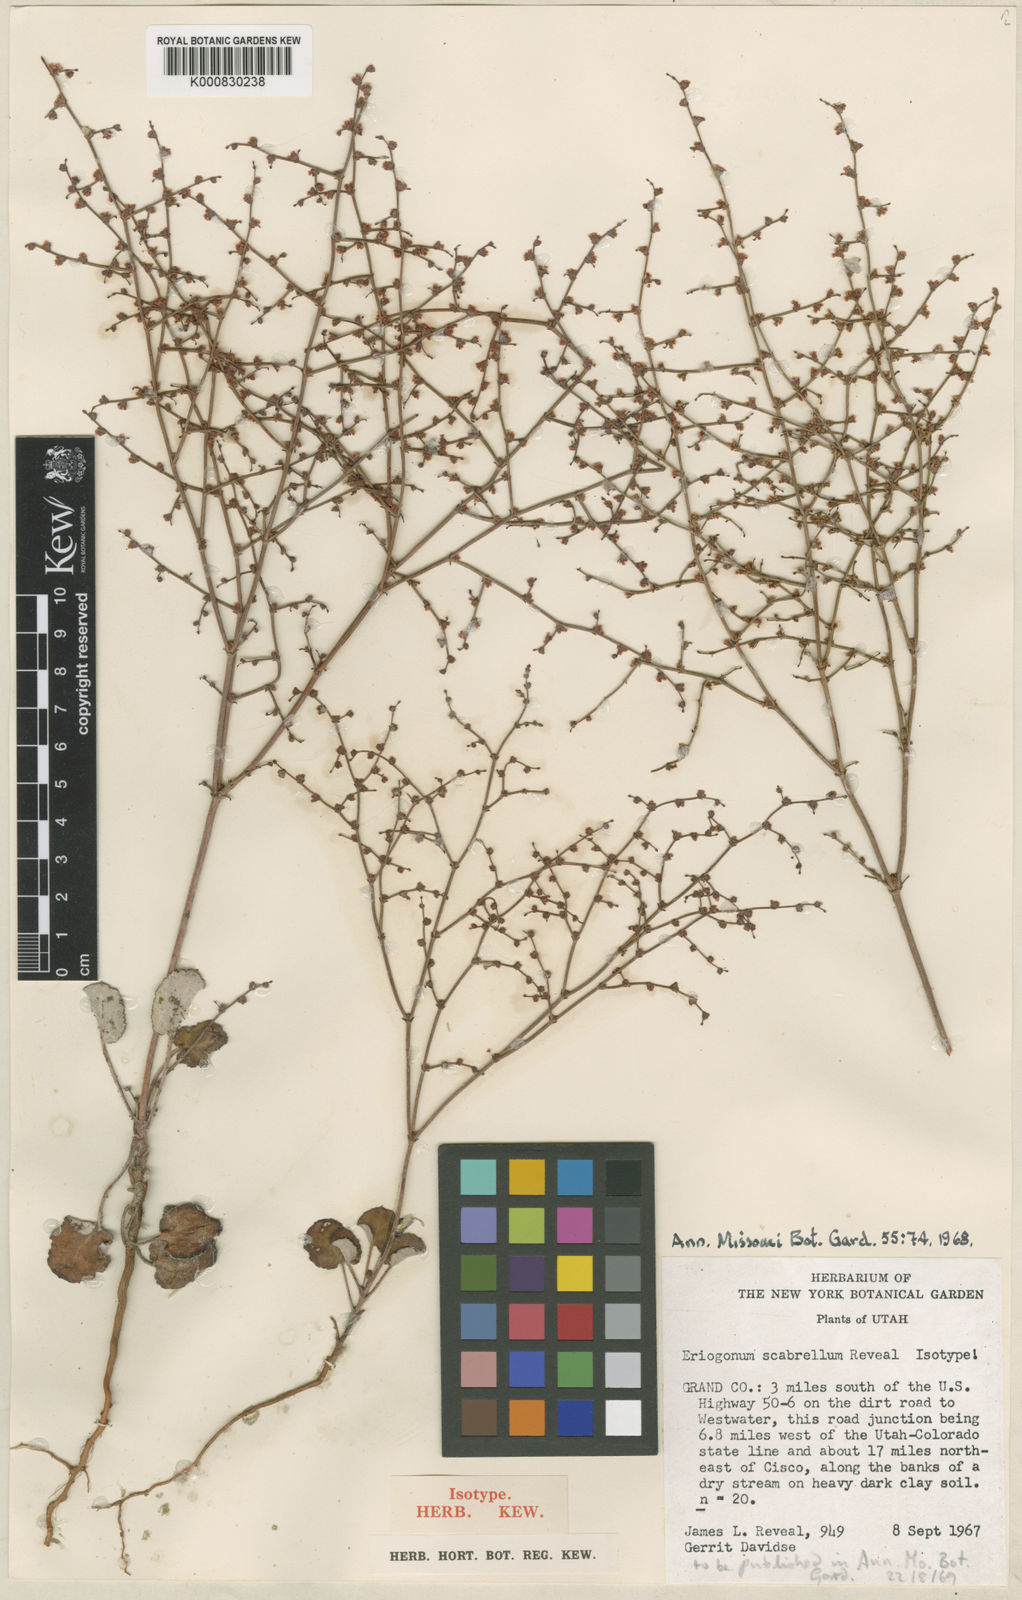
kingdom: Plantae
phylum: Tracheophyta
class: Magnoliopsida
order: Caryophyllales
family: Polygonaceae
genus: Eriogonum
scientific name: Eriogonum scabrellum
